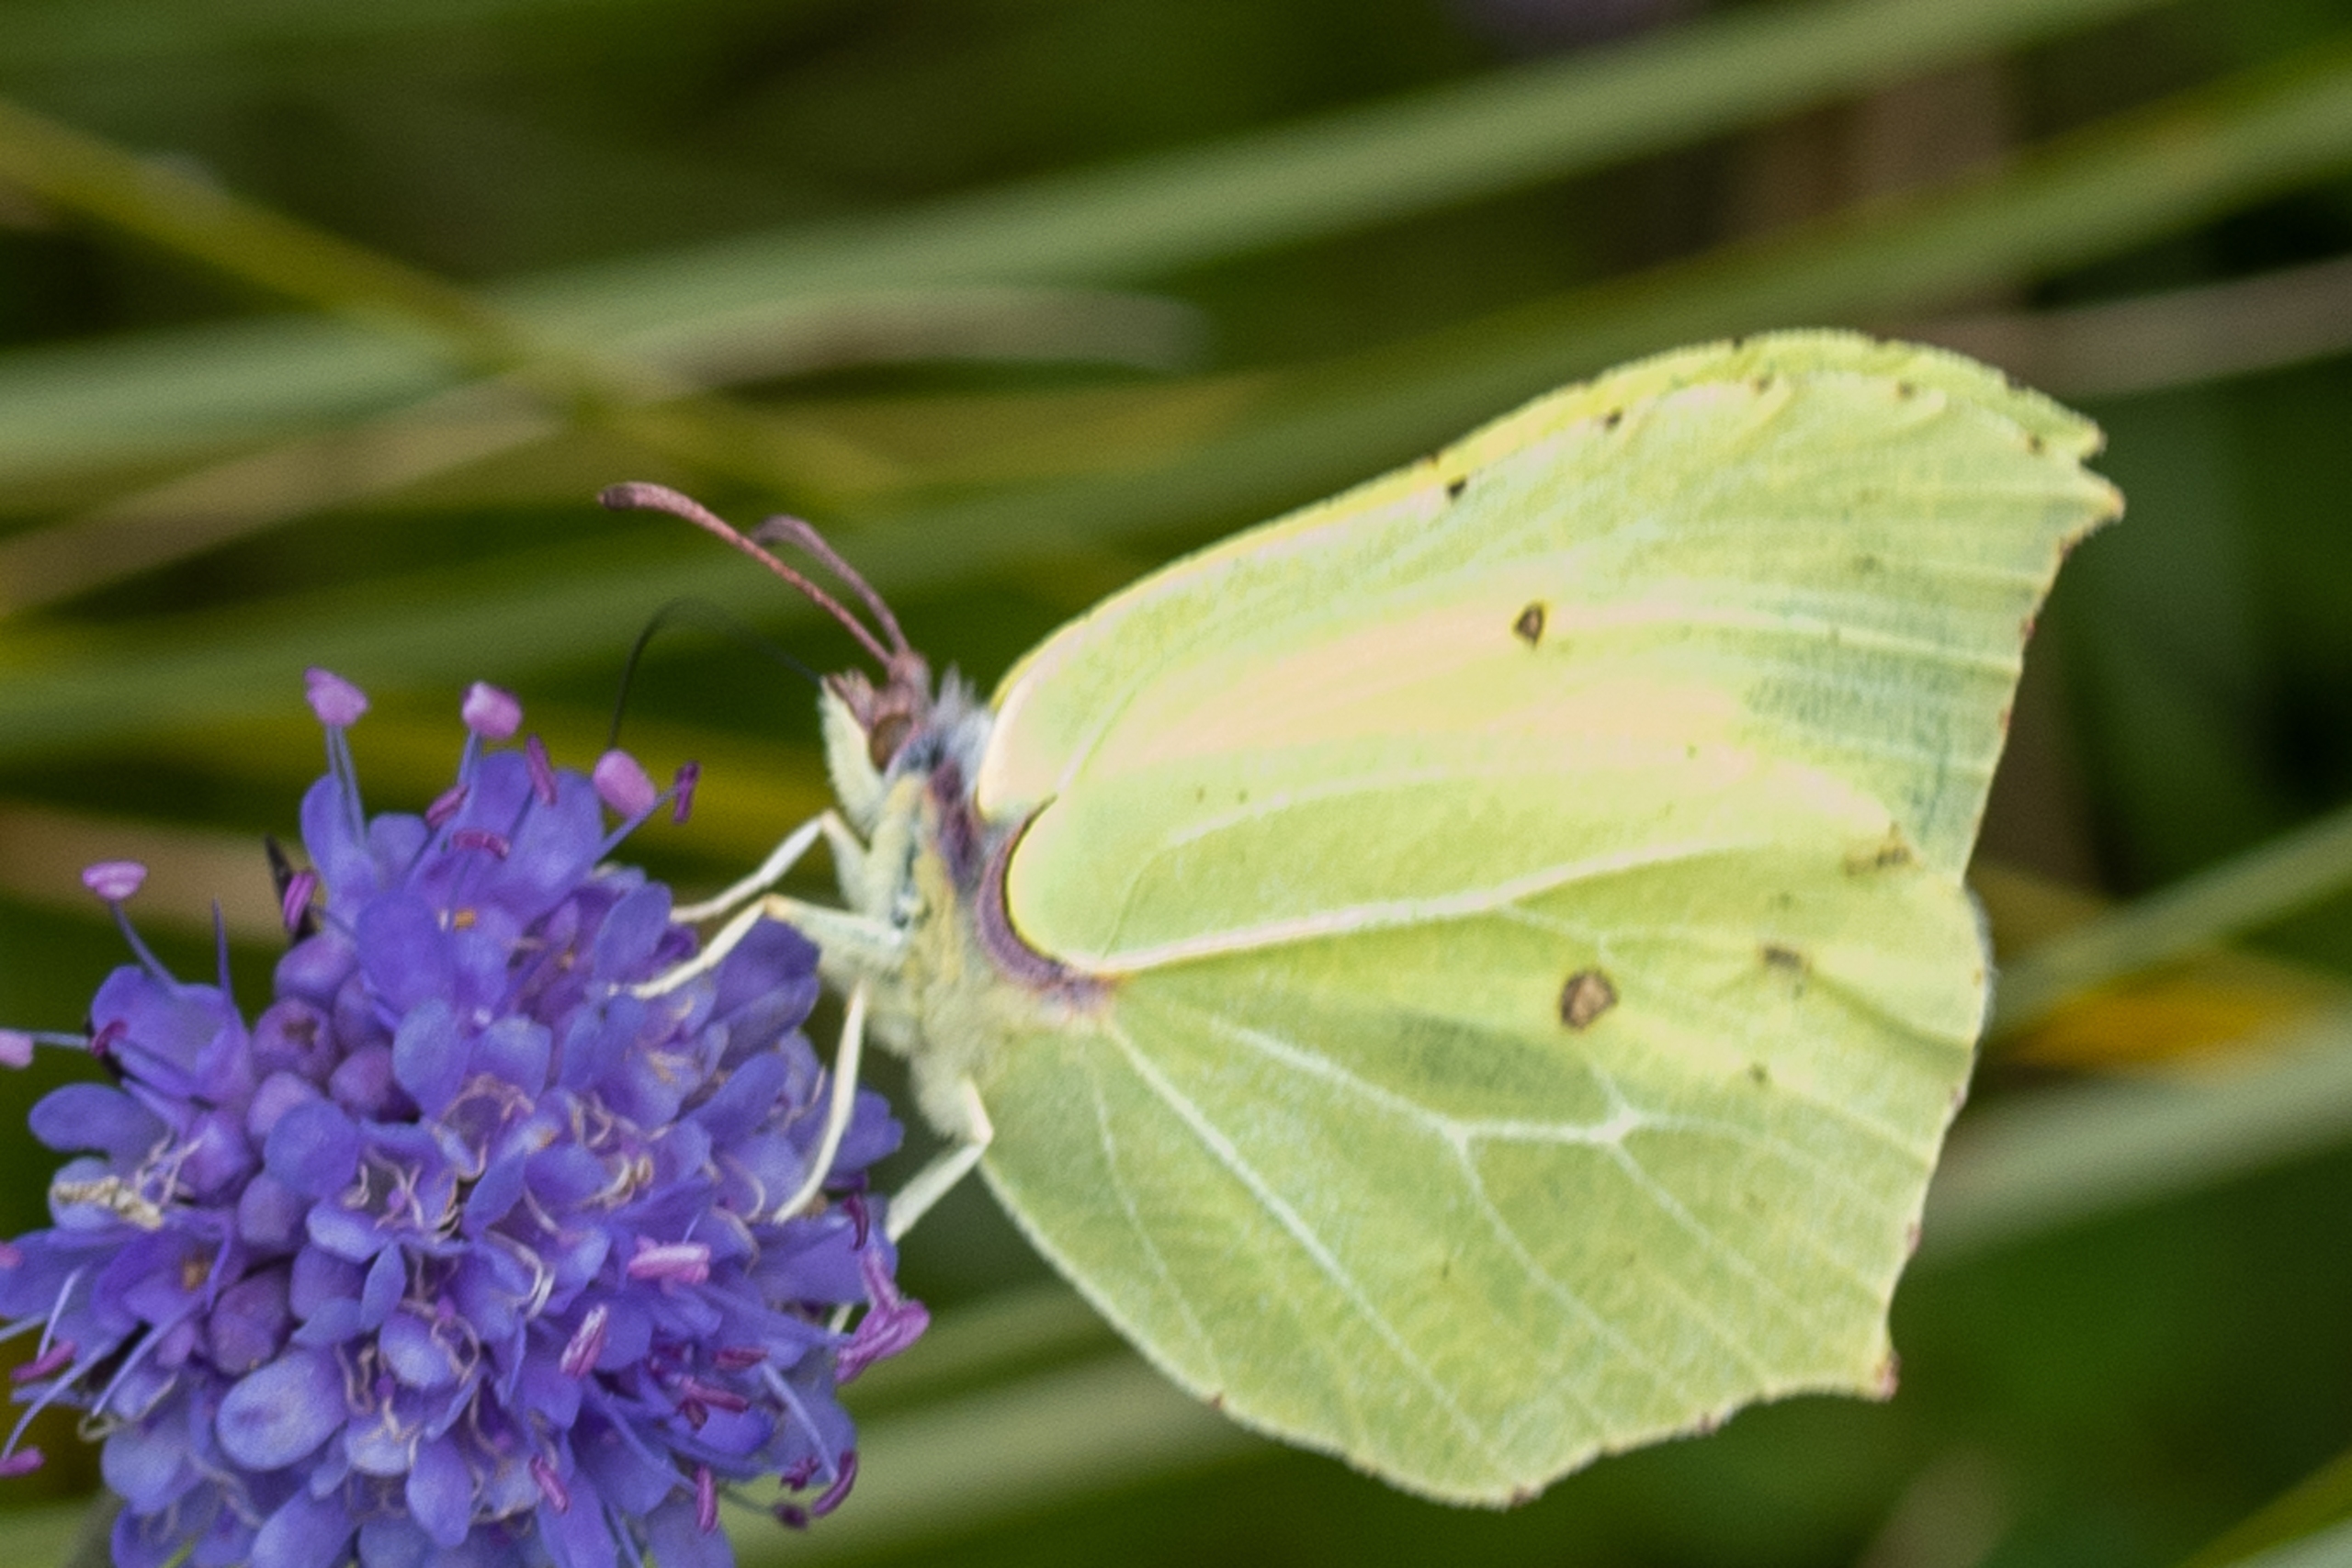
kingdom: Animalia
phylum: Arthropoda
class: Insecta
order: Lepidoptera
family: Pieridae
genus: Gonepteryx
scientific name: Gonepteryx rhamni
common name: Citronsommerfugl
